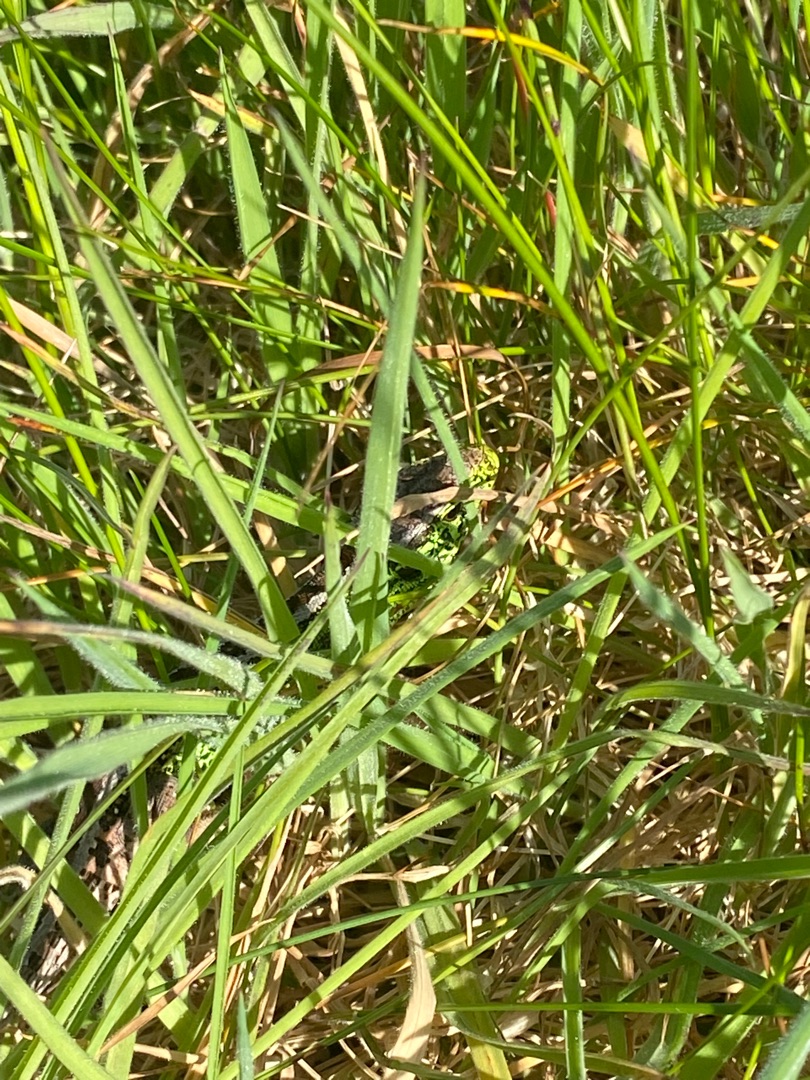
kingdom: Animalia
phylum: Chordata
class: Squamata
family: Lacertidae
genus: Lacerta
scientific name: Lacerta agilis
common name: Markfirben
